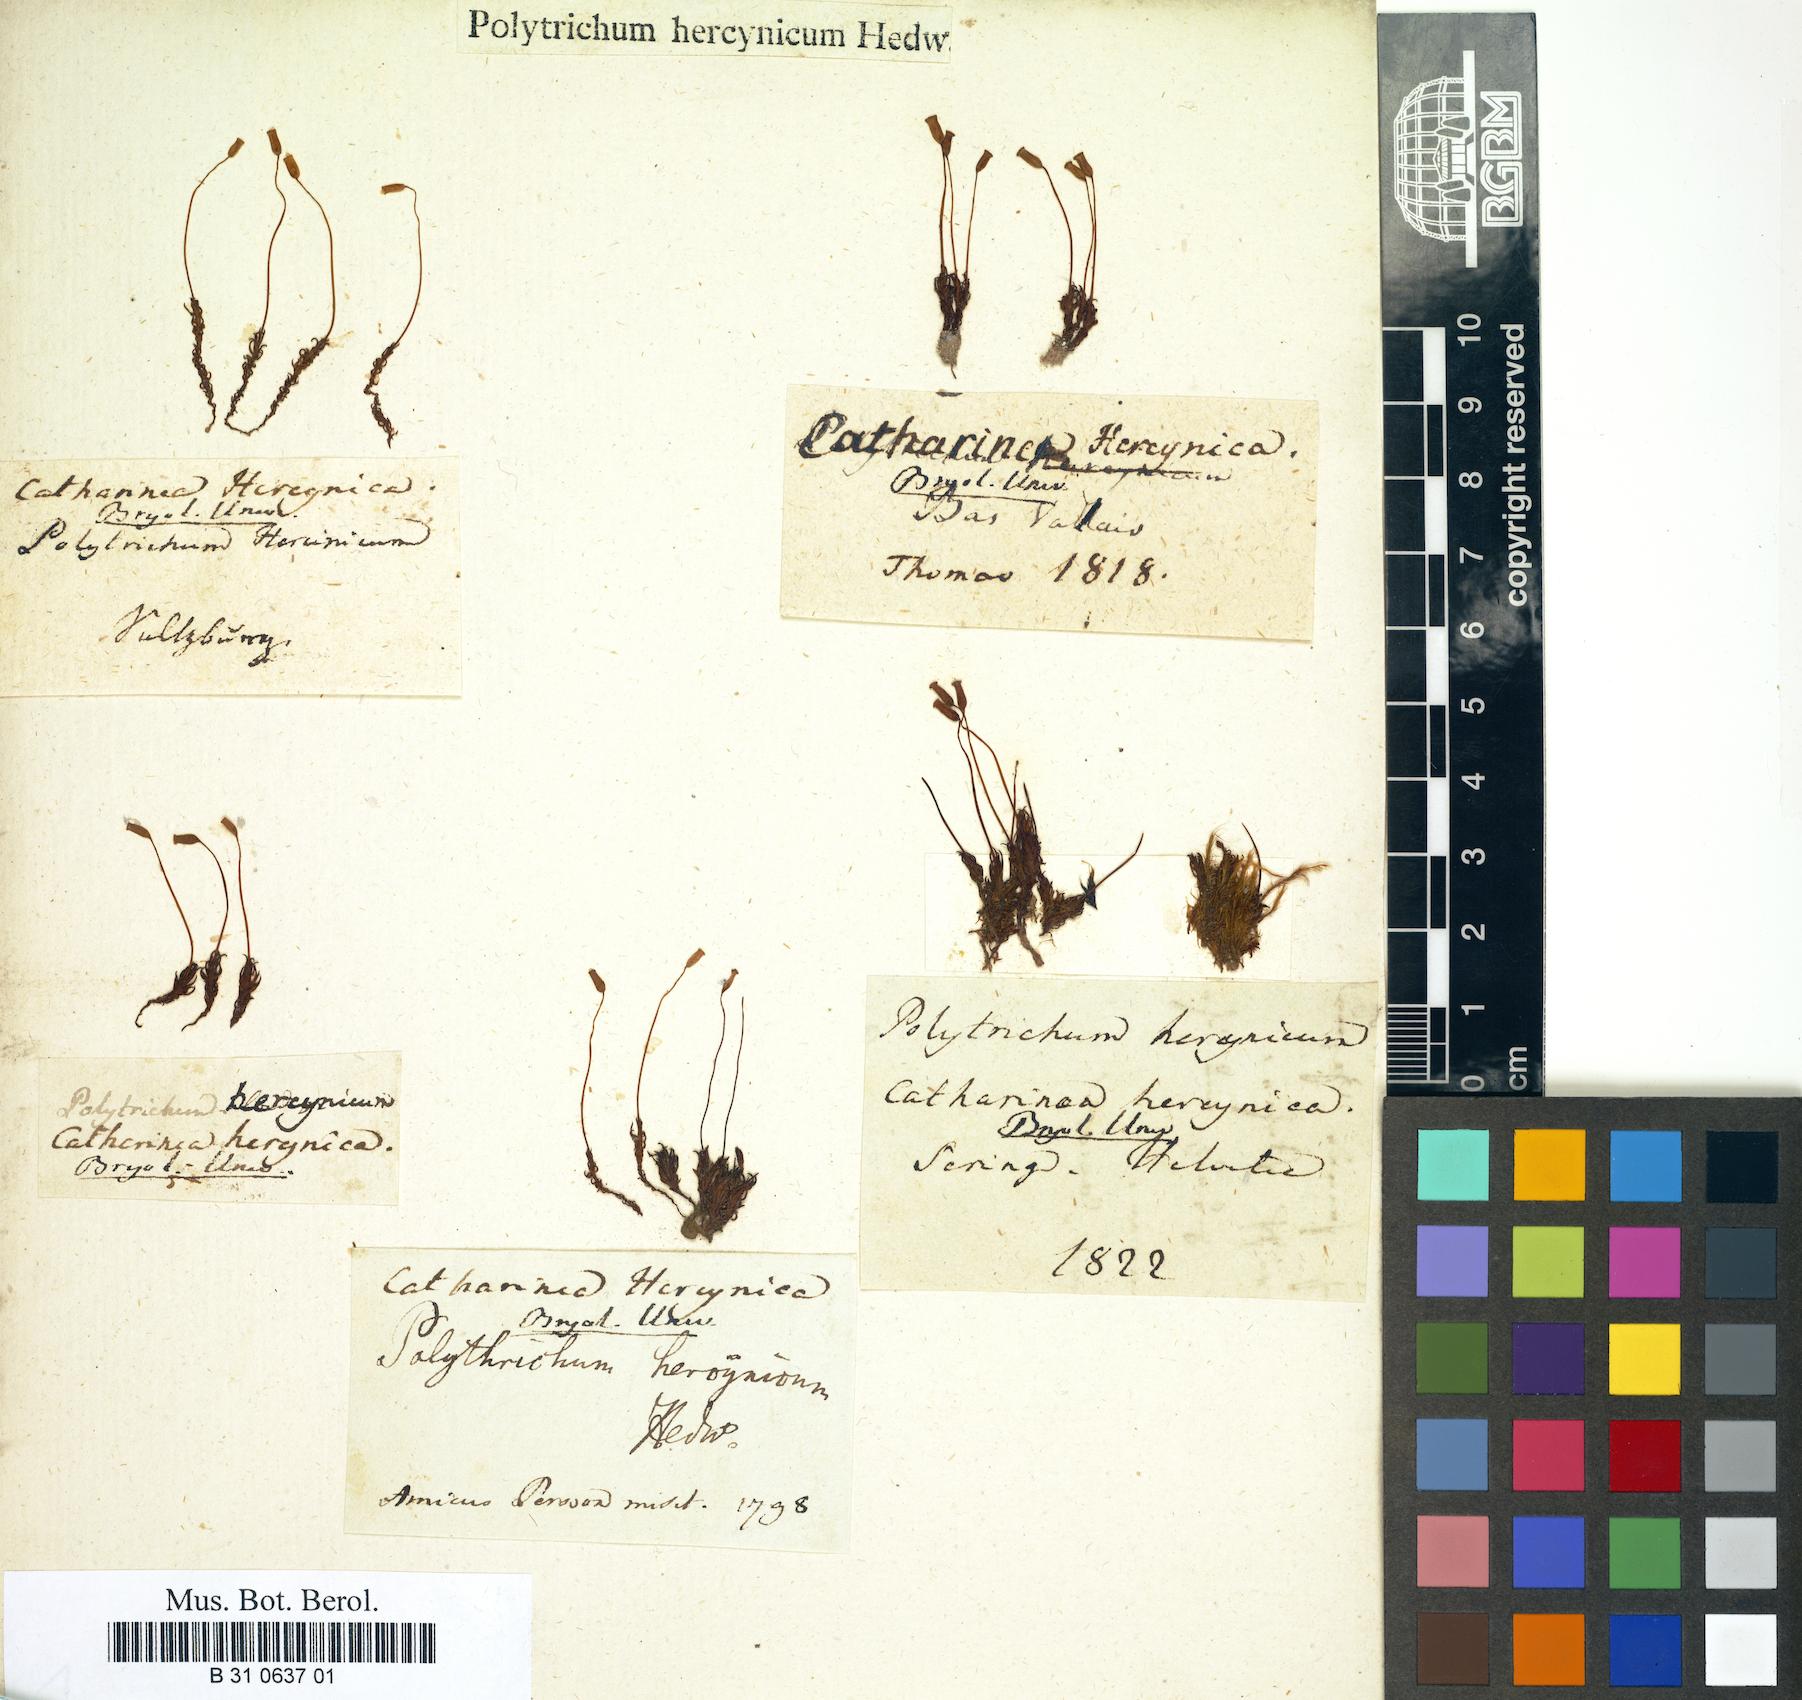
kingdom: Plantae
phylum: Bryophyta
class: Polytrichopsida
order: Polytrichales
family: Polytrichaceae
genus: Oligotrichum
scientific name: Oligotrichum hercynicum
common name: Hercynian hair moss
